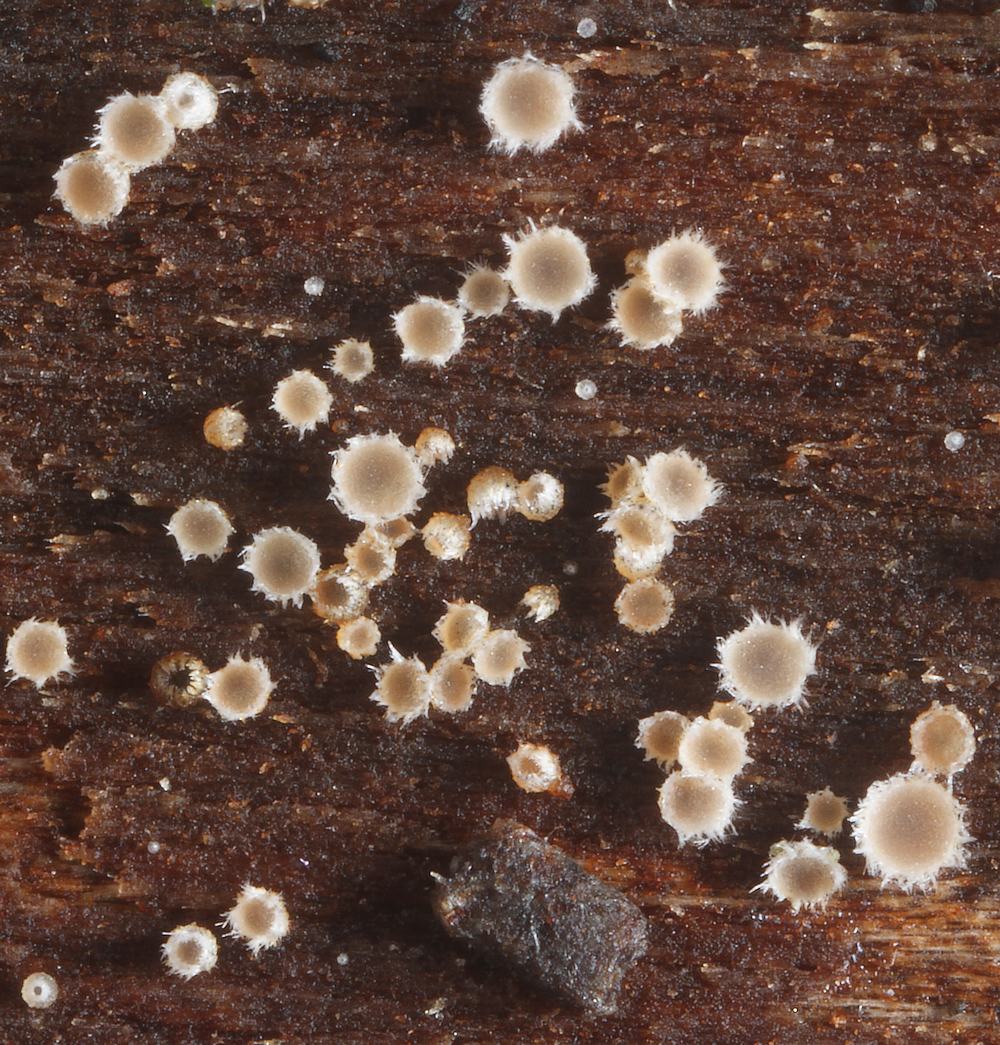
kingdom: Fungi
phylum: Ascomycota
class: Leotiomycetes
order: Helotiales
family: Hyaloscyphaceae
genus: Protounguicularia
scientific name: Protounguicularia transiens
